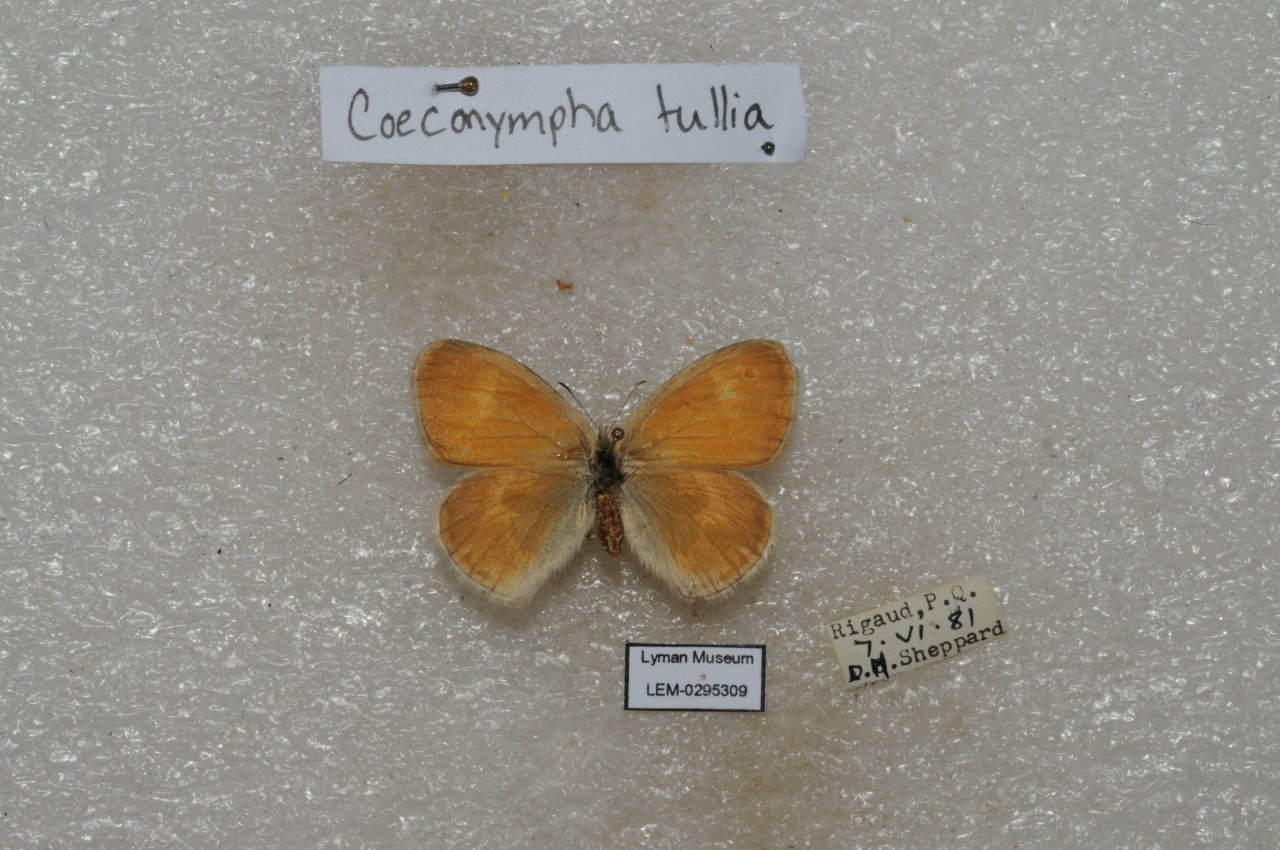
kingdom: Animalia
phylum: Arthropoda
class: Insecta
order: Lepidoptera
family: Nymphalidae
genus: Coenonympha
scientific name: Coenonympha tullia
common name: Large Heath
